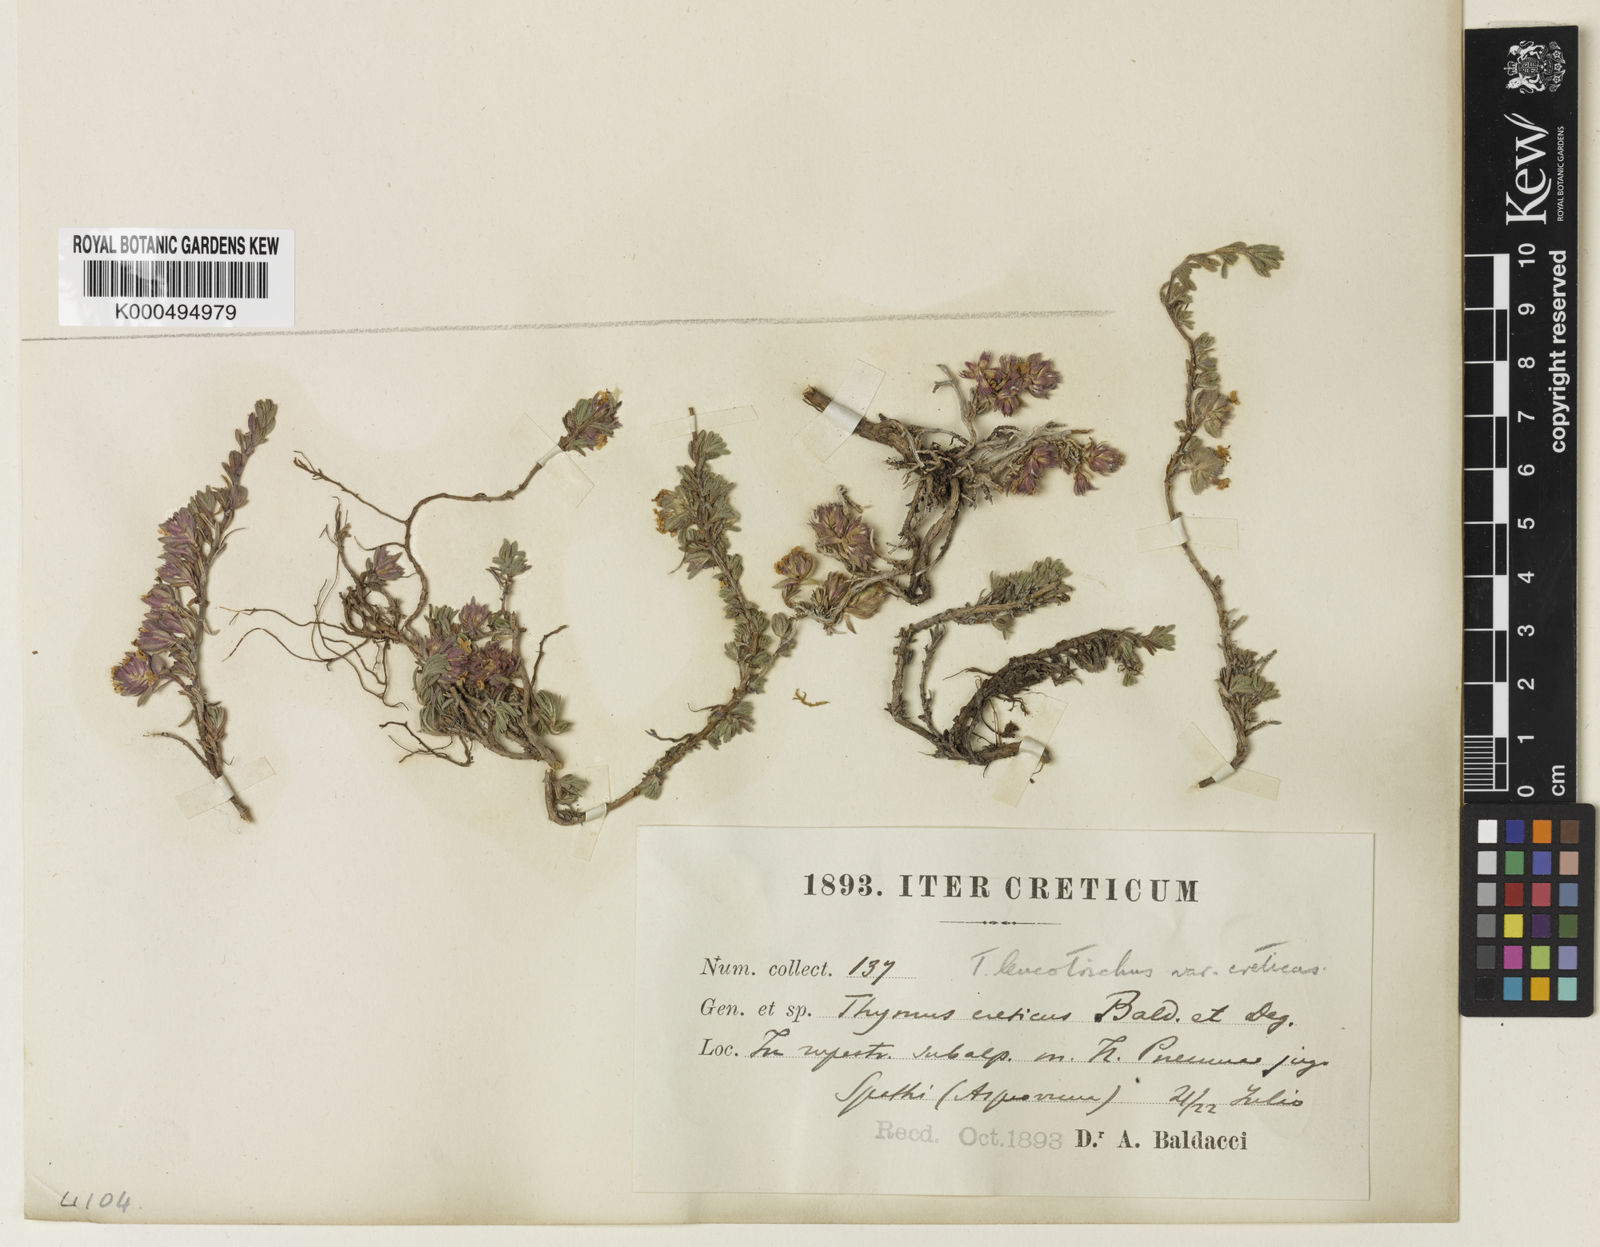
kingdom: Plantae
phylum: Tracheophyta
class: Magnoliopsida
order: Lamiales
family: Lamiaceae
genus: Thymus
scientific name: Thymus
